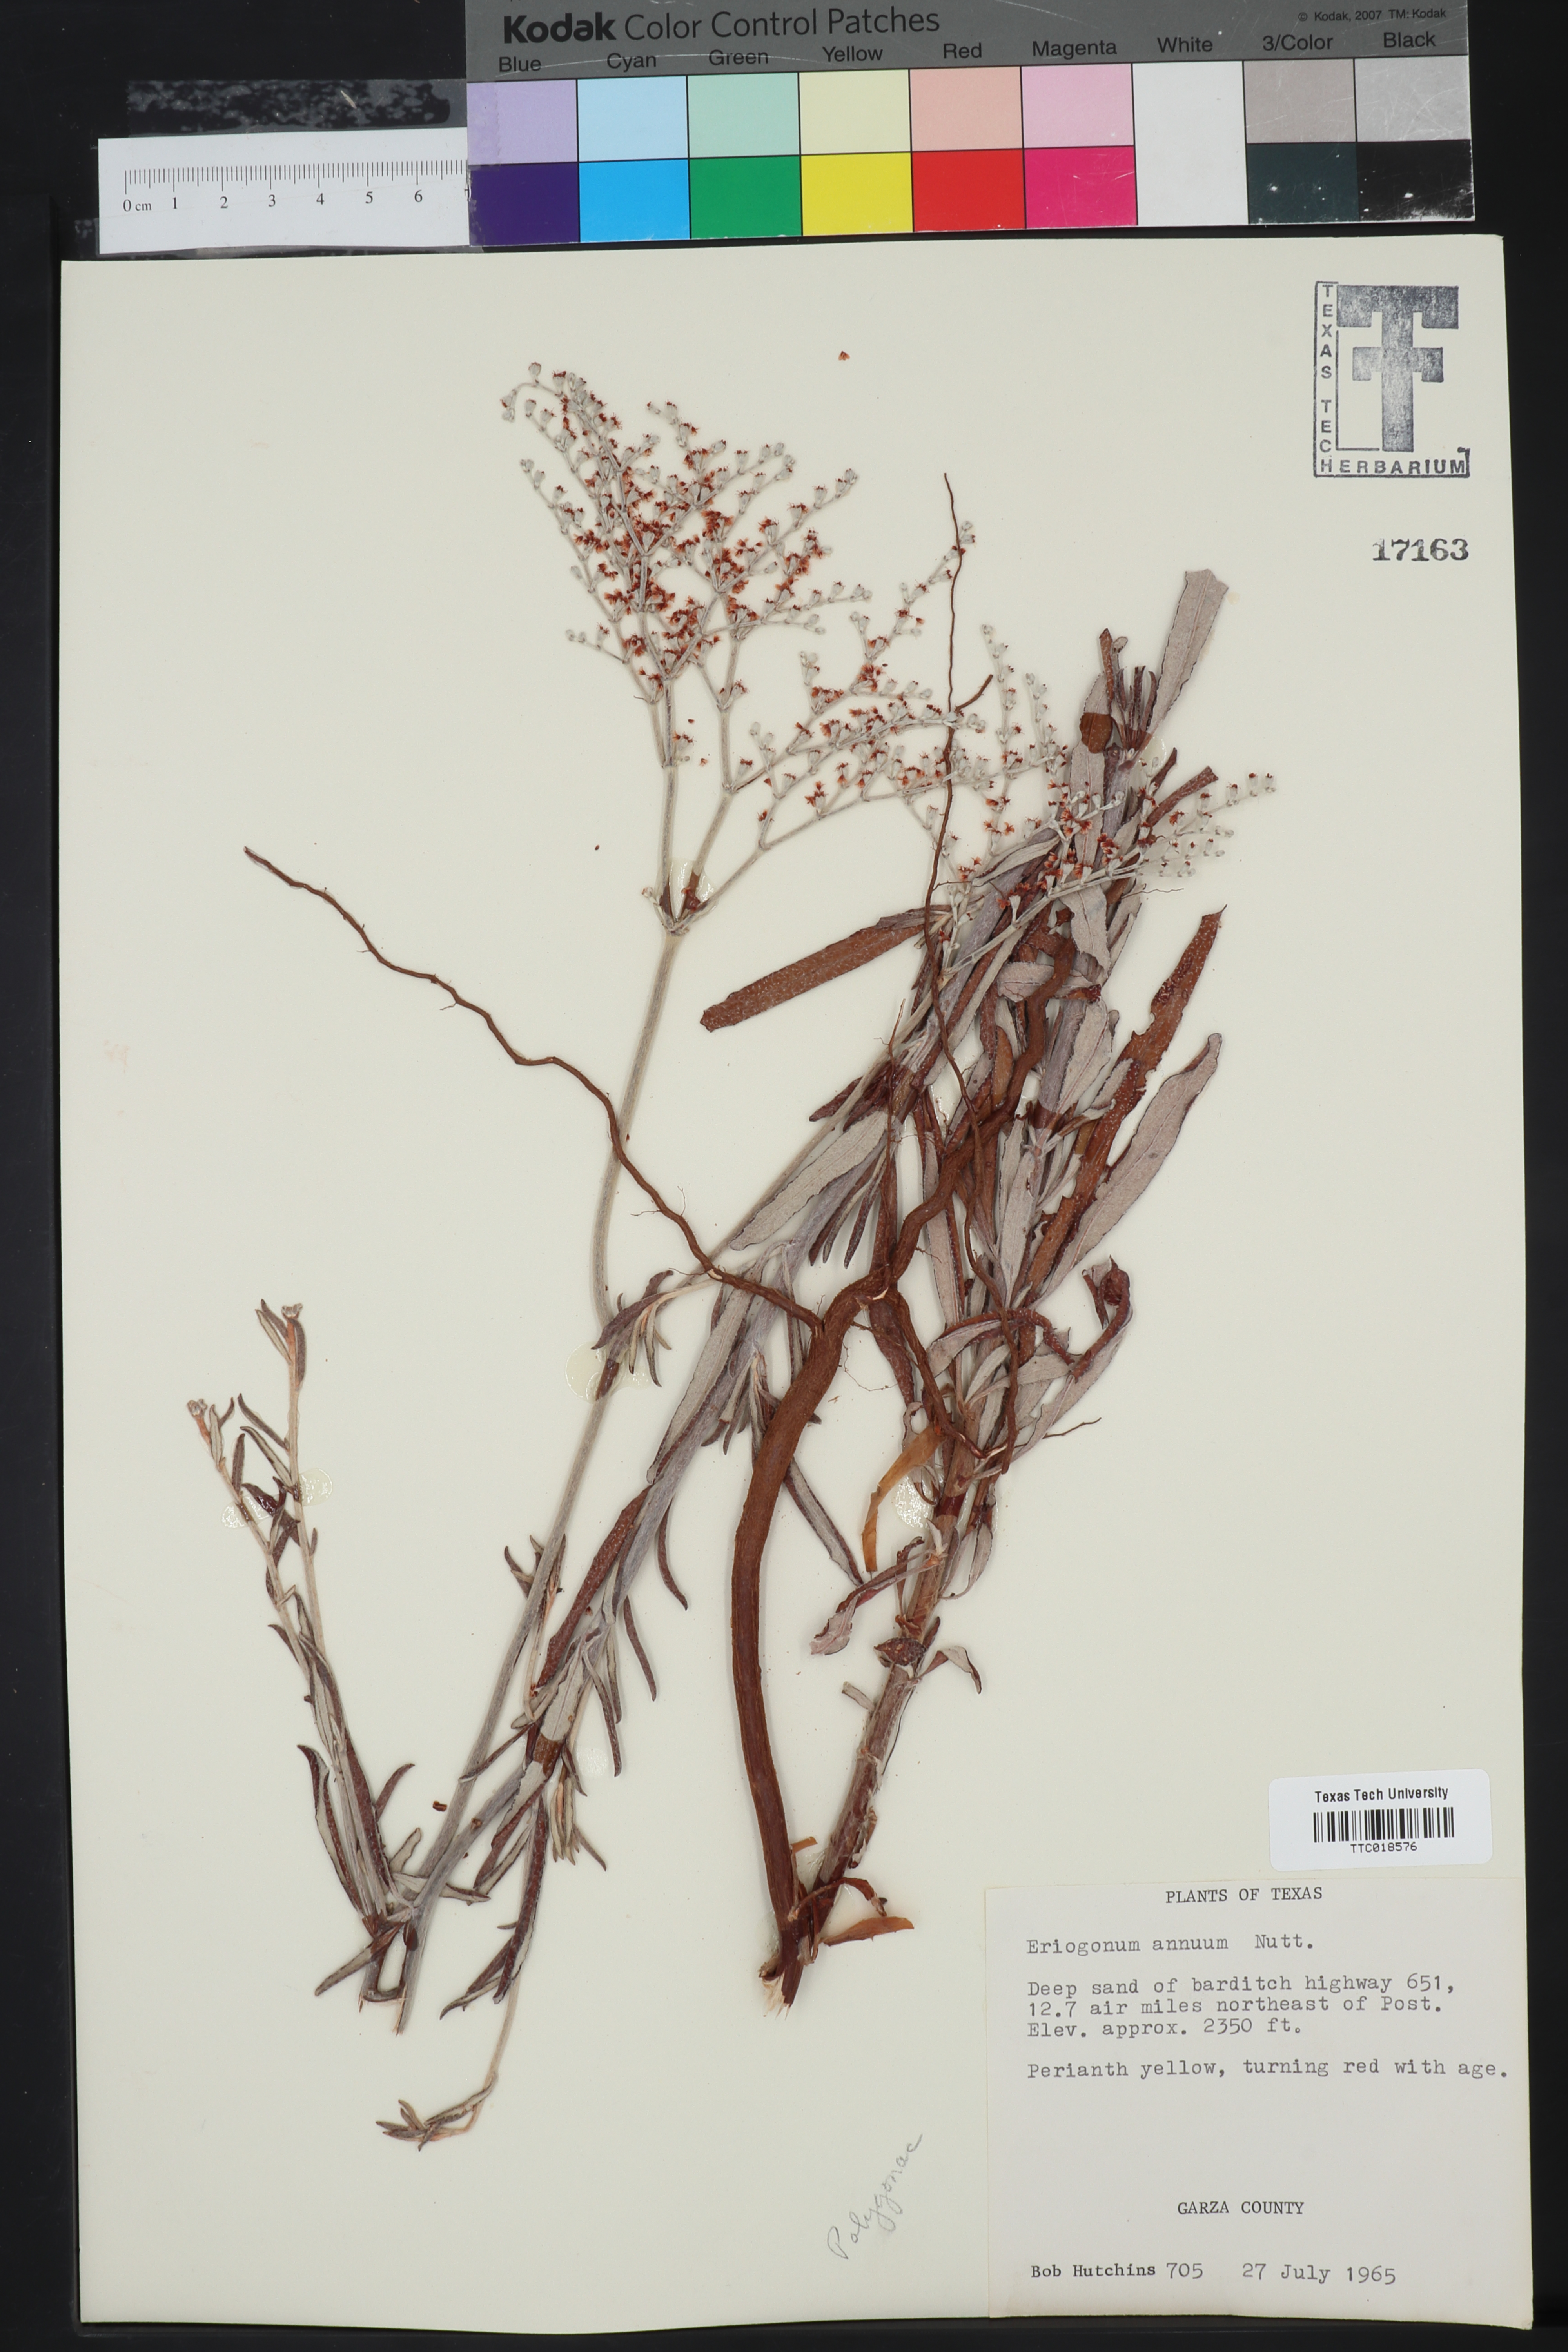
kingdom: Plantae
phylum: Tracheophyta
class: Magnoliopsida
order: Caryophyllales
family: Polygonaceae
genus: Eriogonum
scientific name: Eriogonum annuum
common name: Annual wild buckwheat
